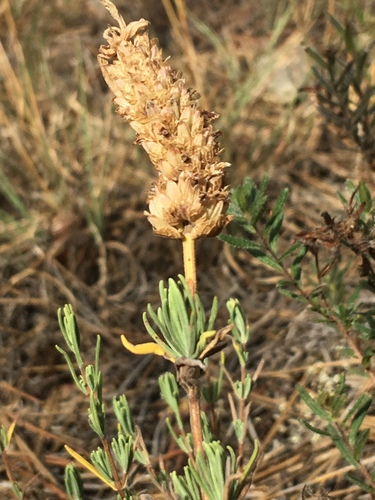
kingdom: Plantae
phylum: Tracheophyta
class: Magnoliopsida
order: Lamiales
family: Lamiaceae
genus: Lavandula
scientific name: Lavandula stoechas
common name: French lavender
